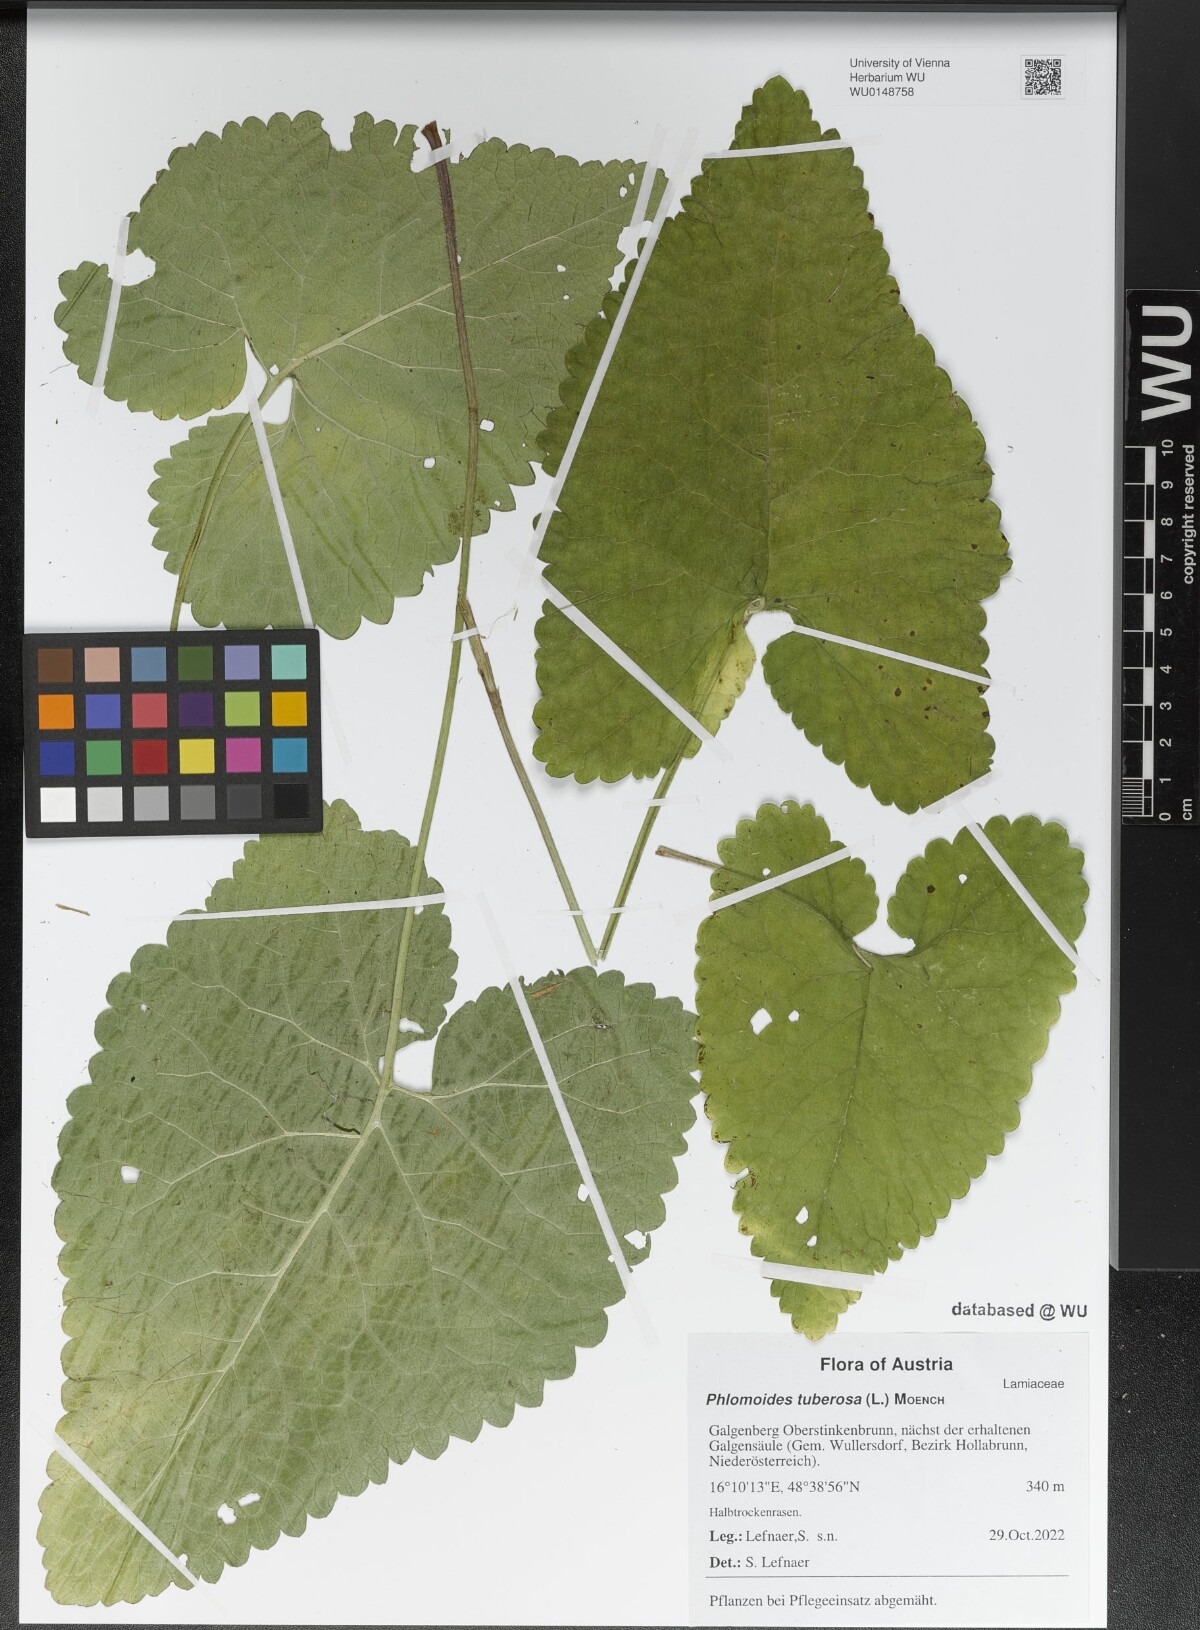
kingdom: Plantae
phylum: Tracheophyta
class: Magnoliopsida
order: Lamiales
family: Lamiaceae
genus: Phlomoides
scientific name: Phlomoides tuberosa
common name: Tuberous jerusalem sage
